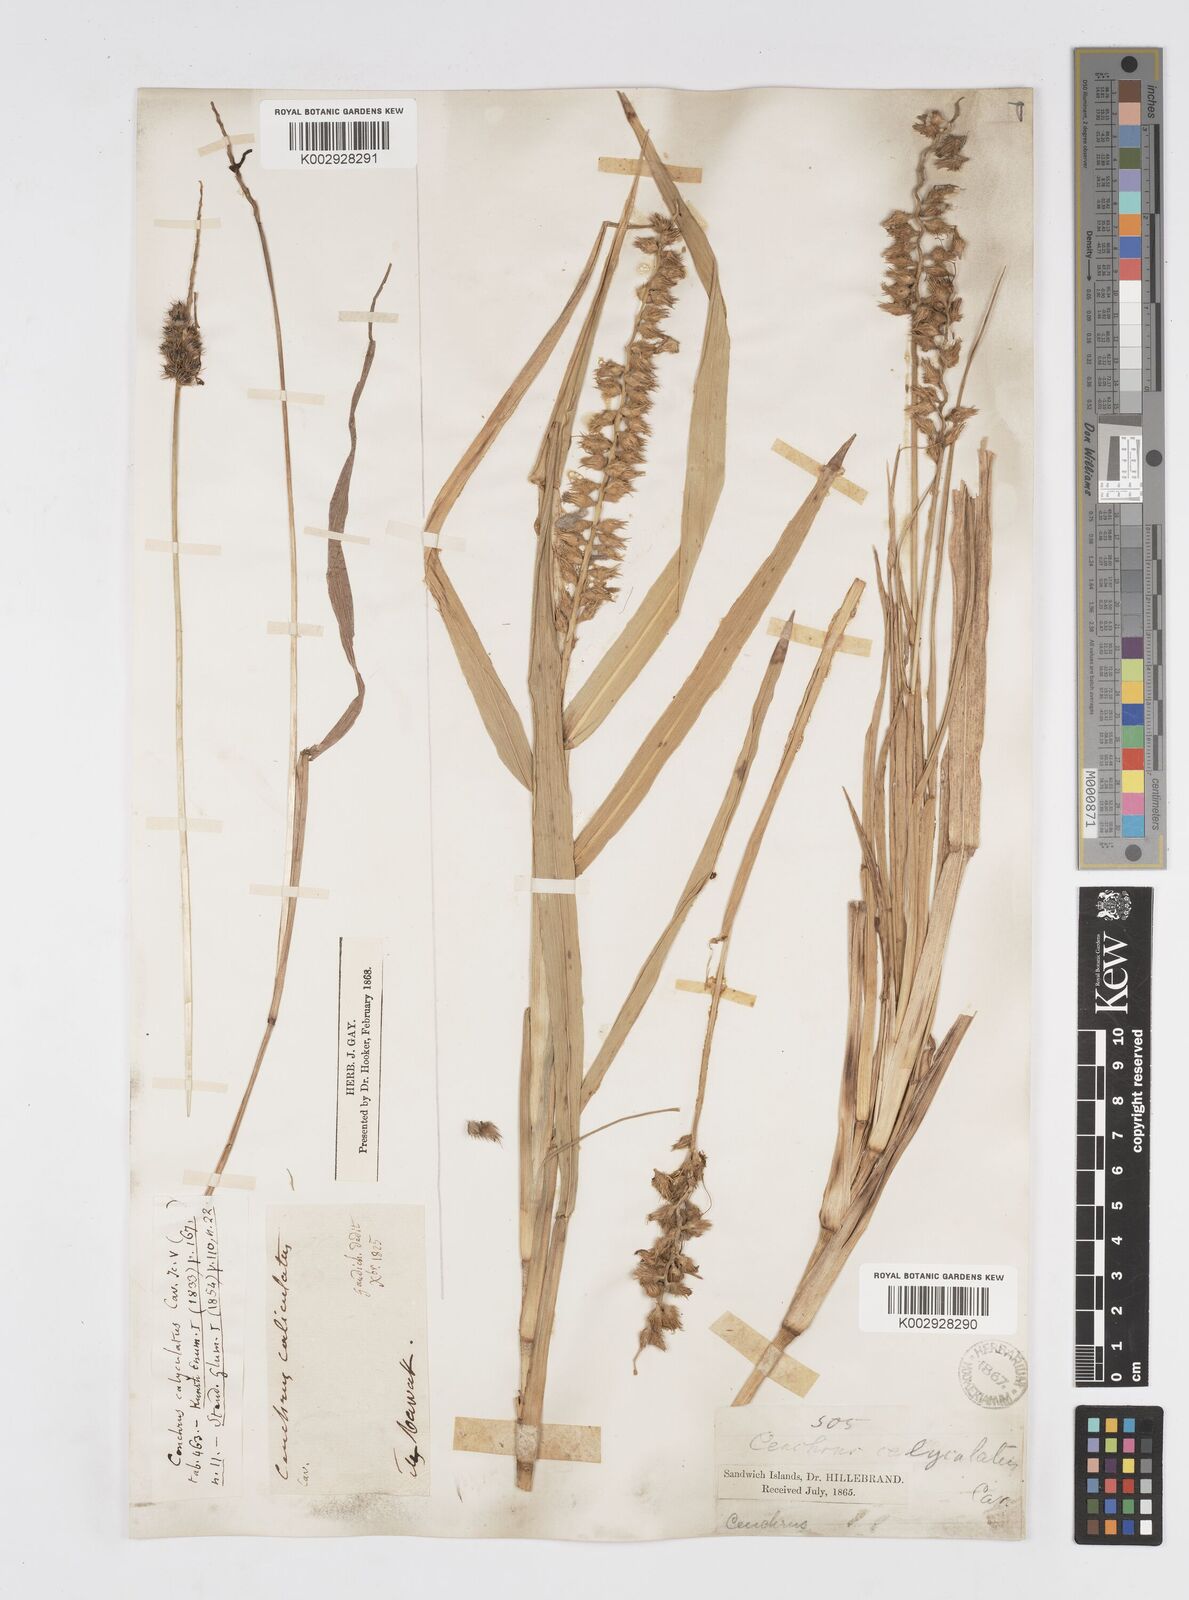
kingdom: Plantae
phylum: Tracheophyta
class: Liliopsida
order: Poales
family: Poaceae
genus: Cenchrus
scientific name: Cenchrus caliculatus
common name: Large bur grass
